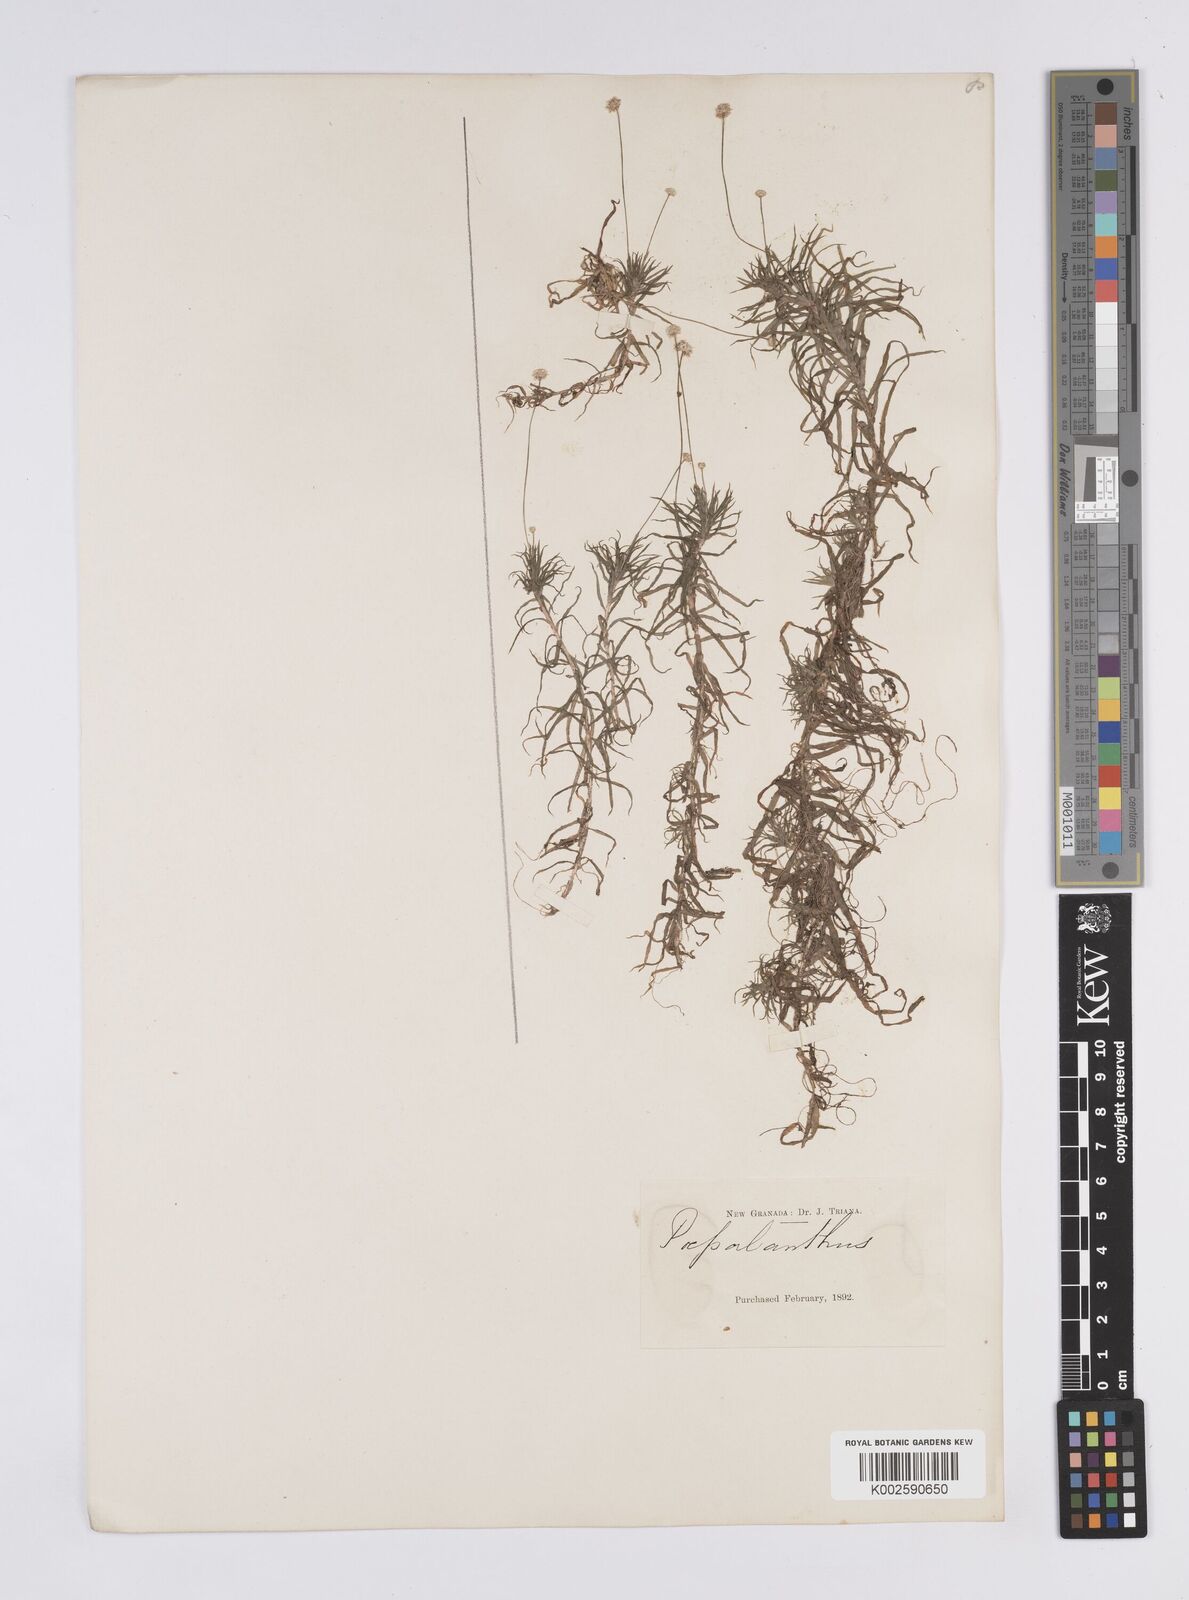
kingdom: Plantae
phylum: Tracheophyta
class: Liliopsida
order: Poales
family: Eriocaulaceae
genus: Syngonanthus
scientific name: Syngonanthus anomalus
